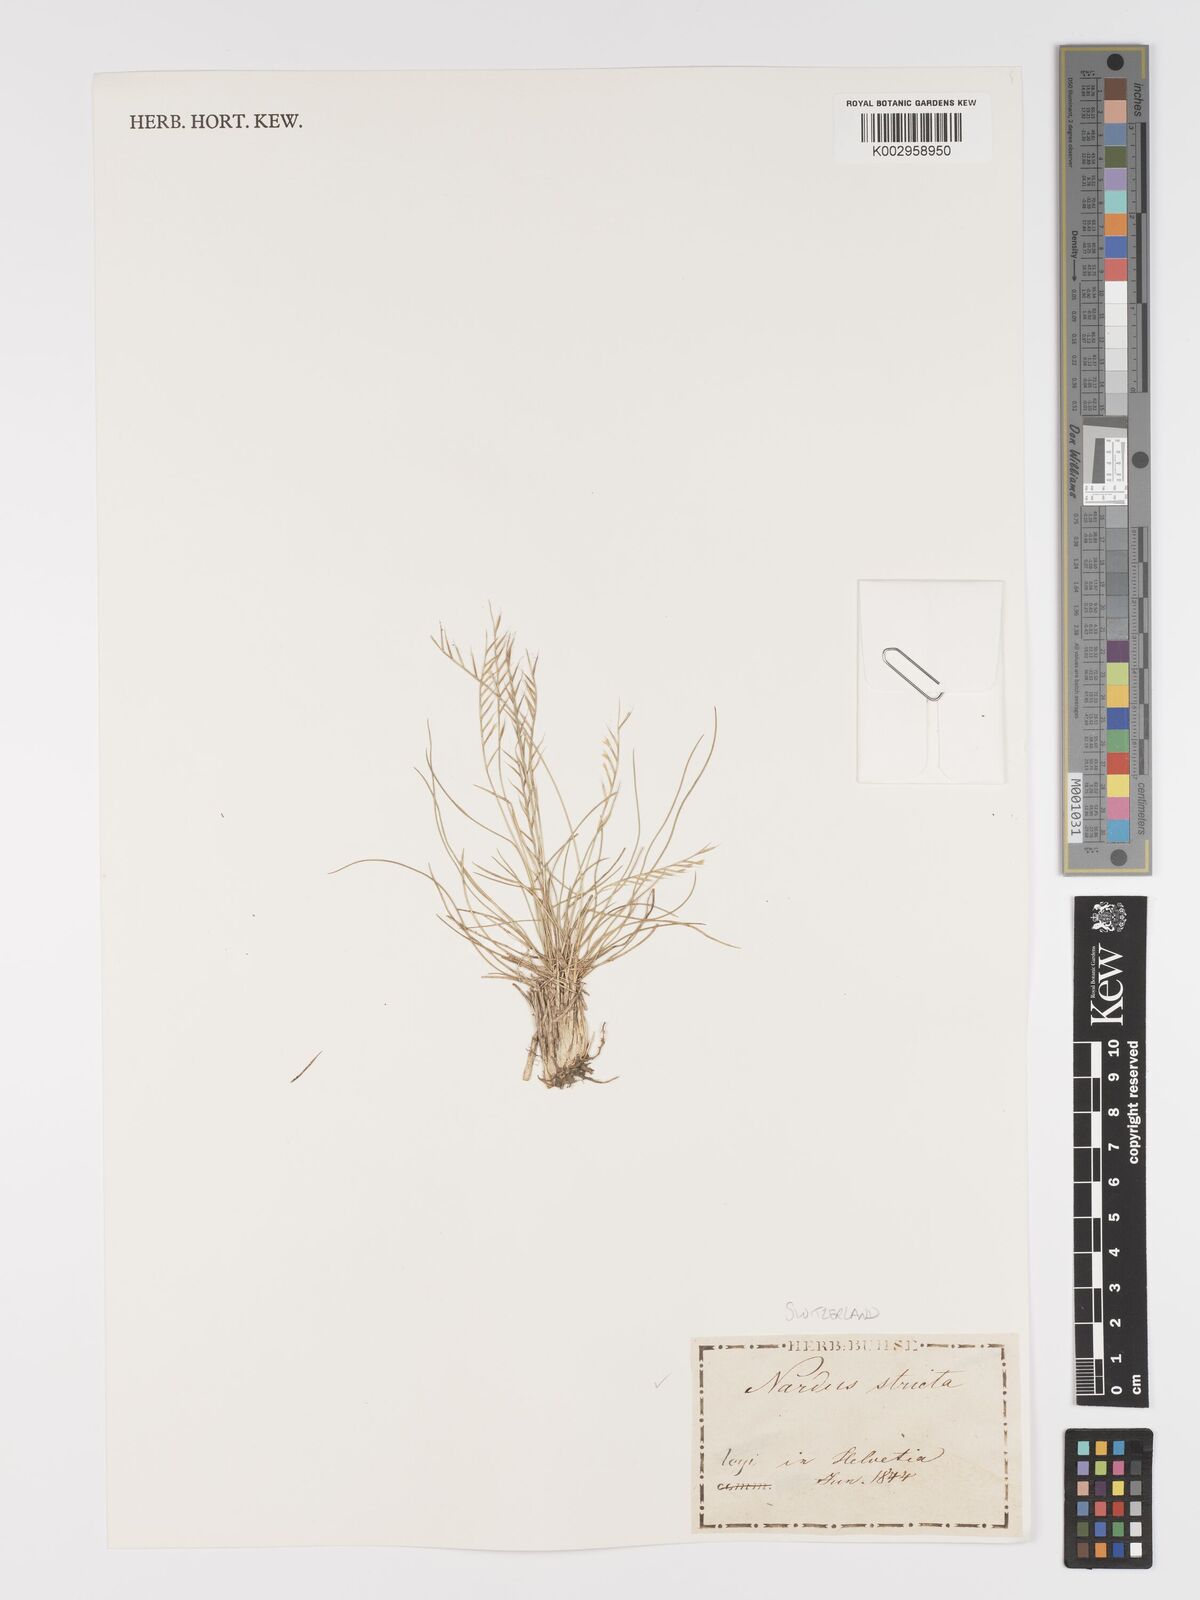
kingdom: Plantae
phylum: Tracheophyta
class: Liliopsida
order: Poales
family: Poaceae
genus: Nardus
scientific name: Nardus stricta
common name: Mat-grass
